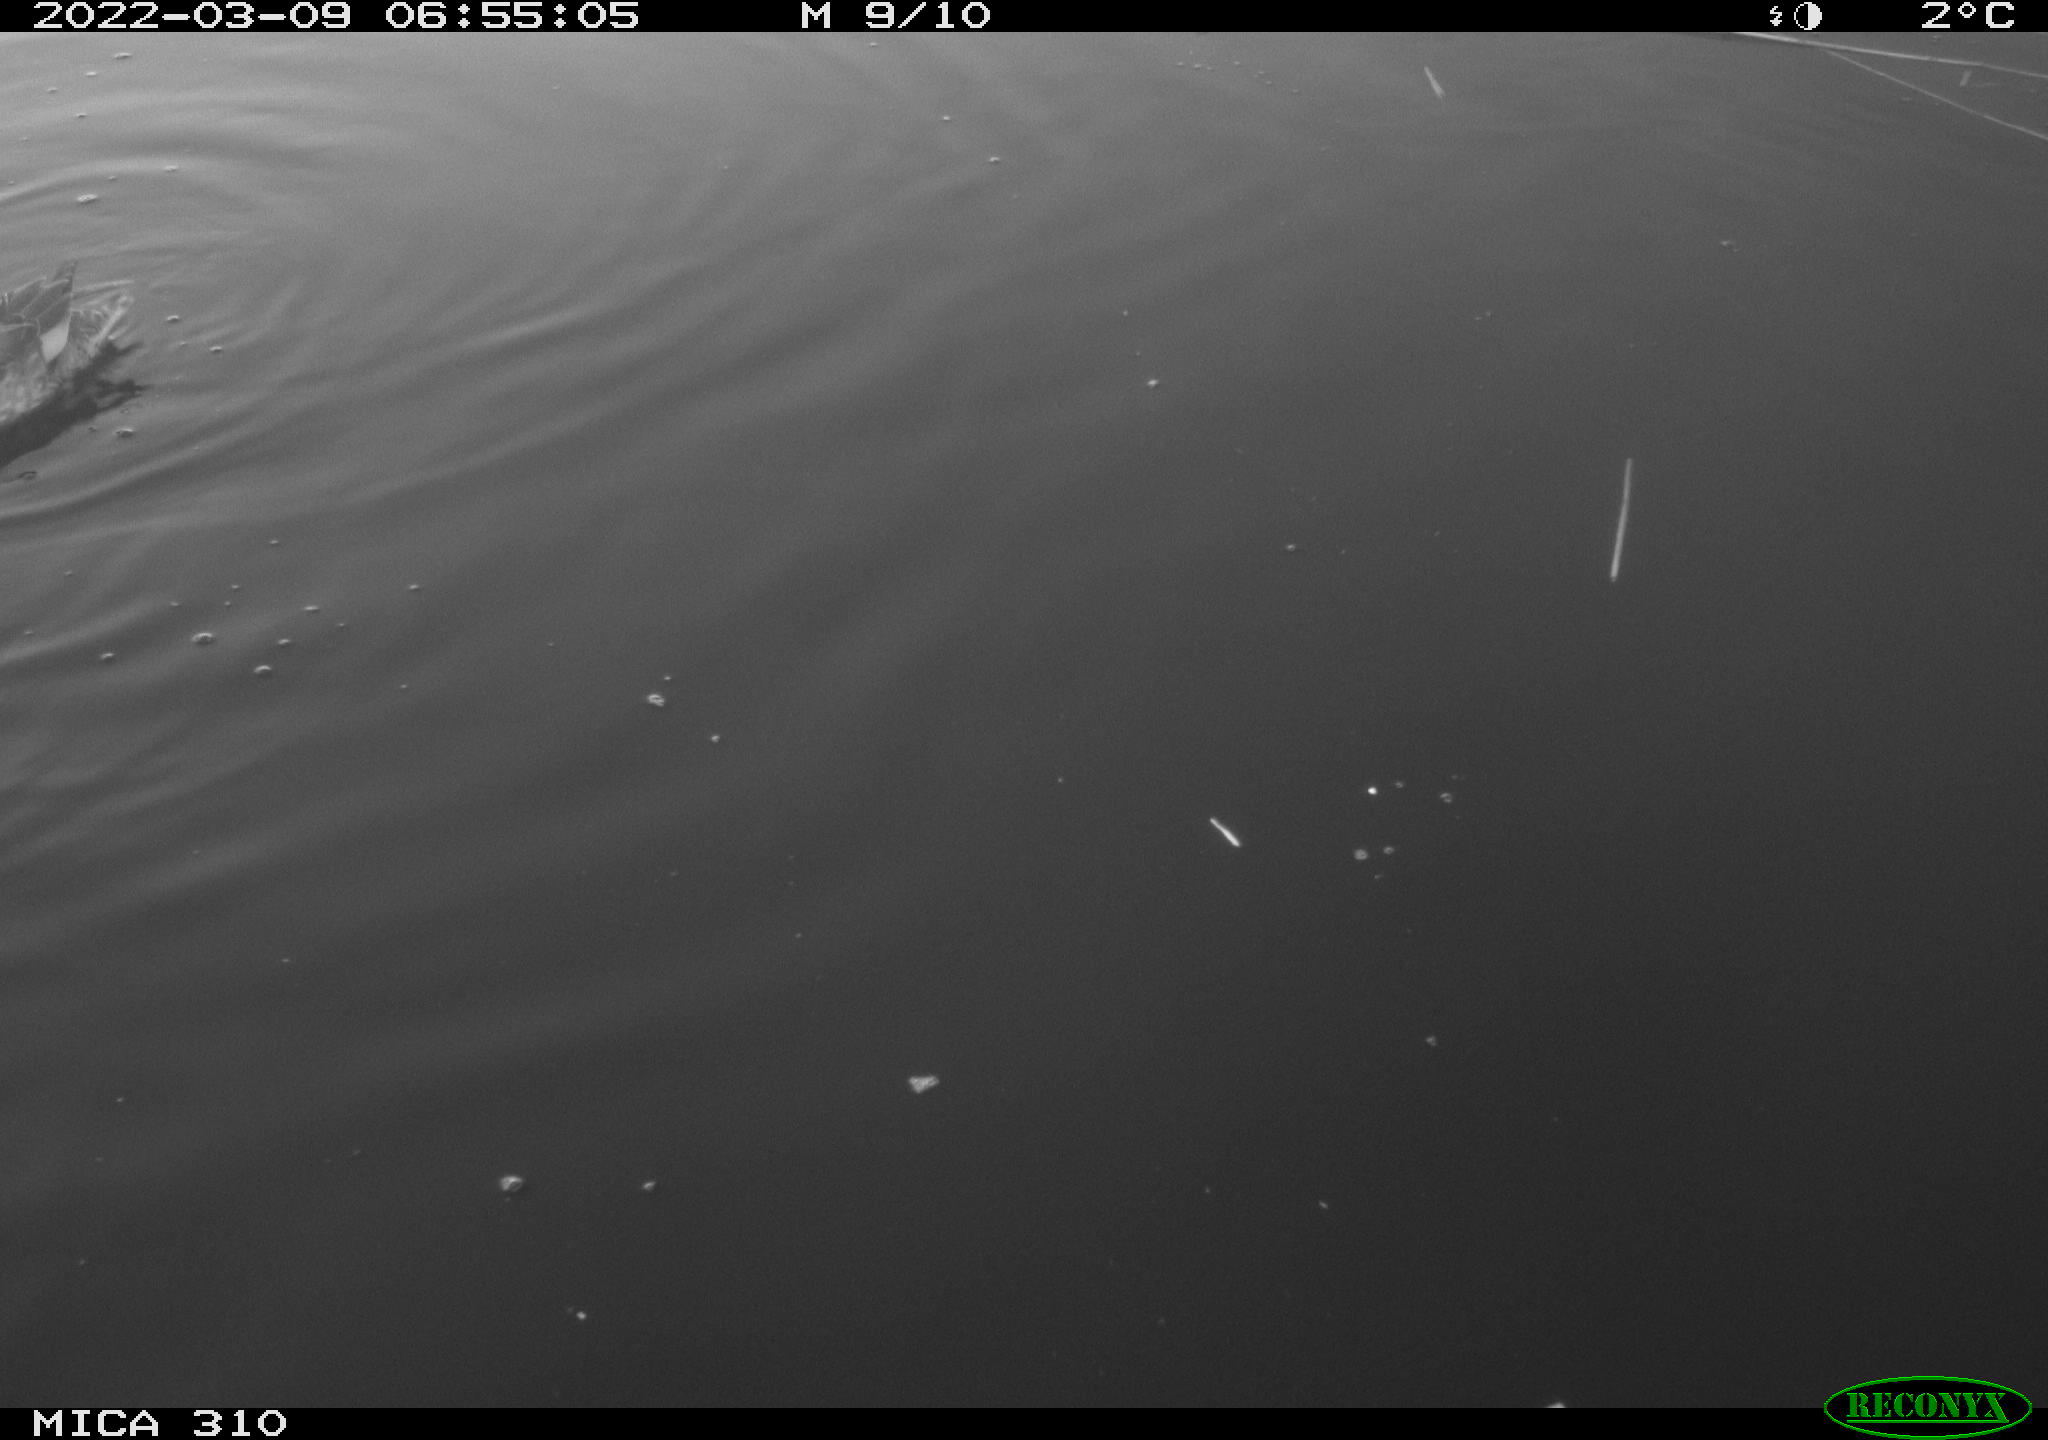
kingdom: Animalia
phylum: Chordata
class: Aves
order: Anseriformes
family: Anatidae
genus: Mareca
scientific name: Mareca strepera
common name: Gadwall
